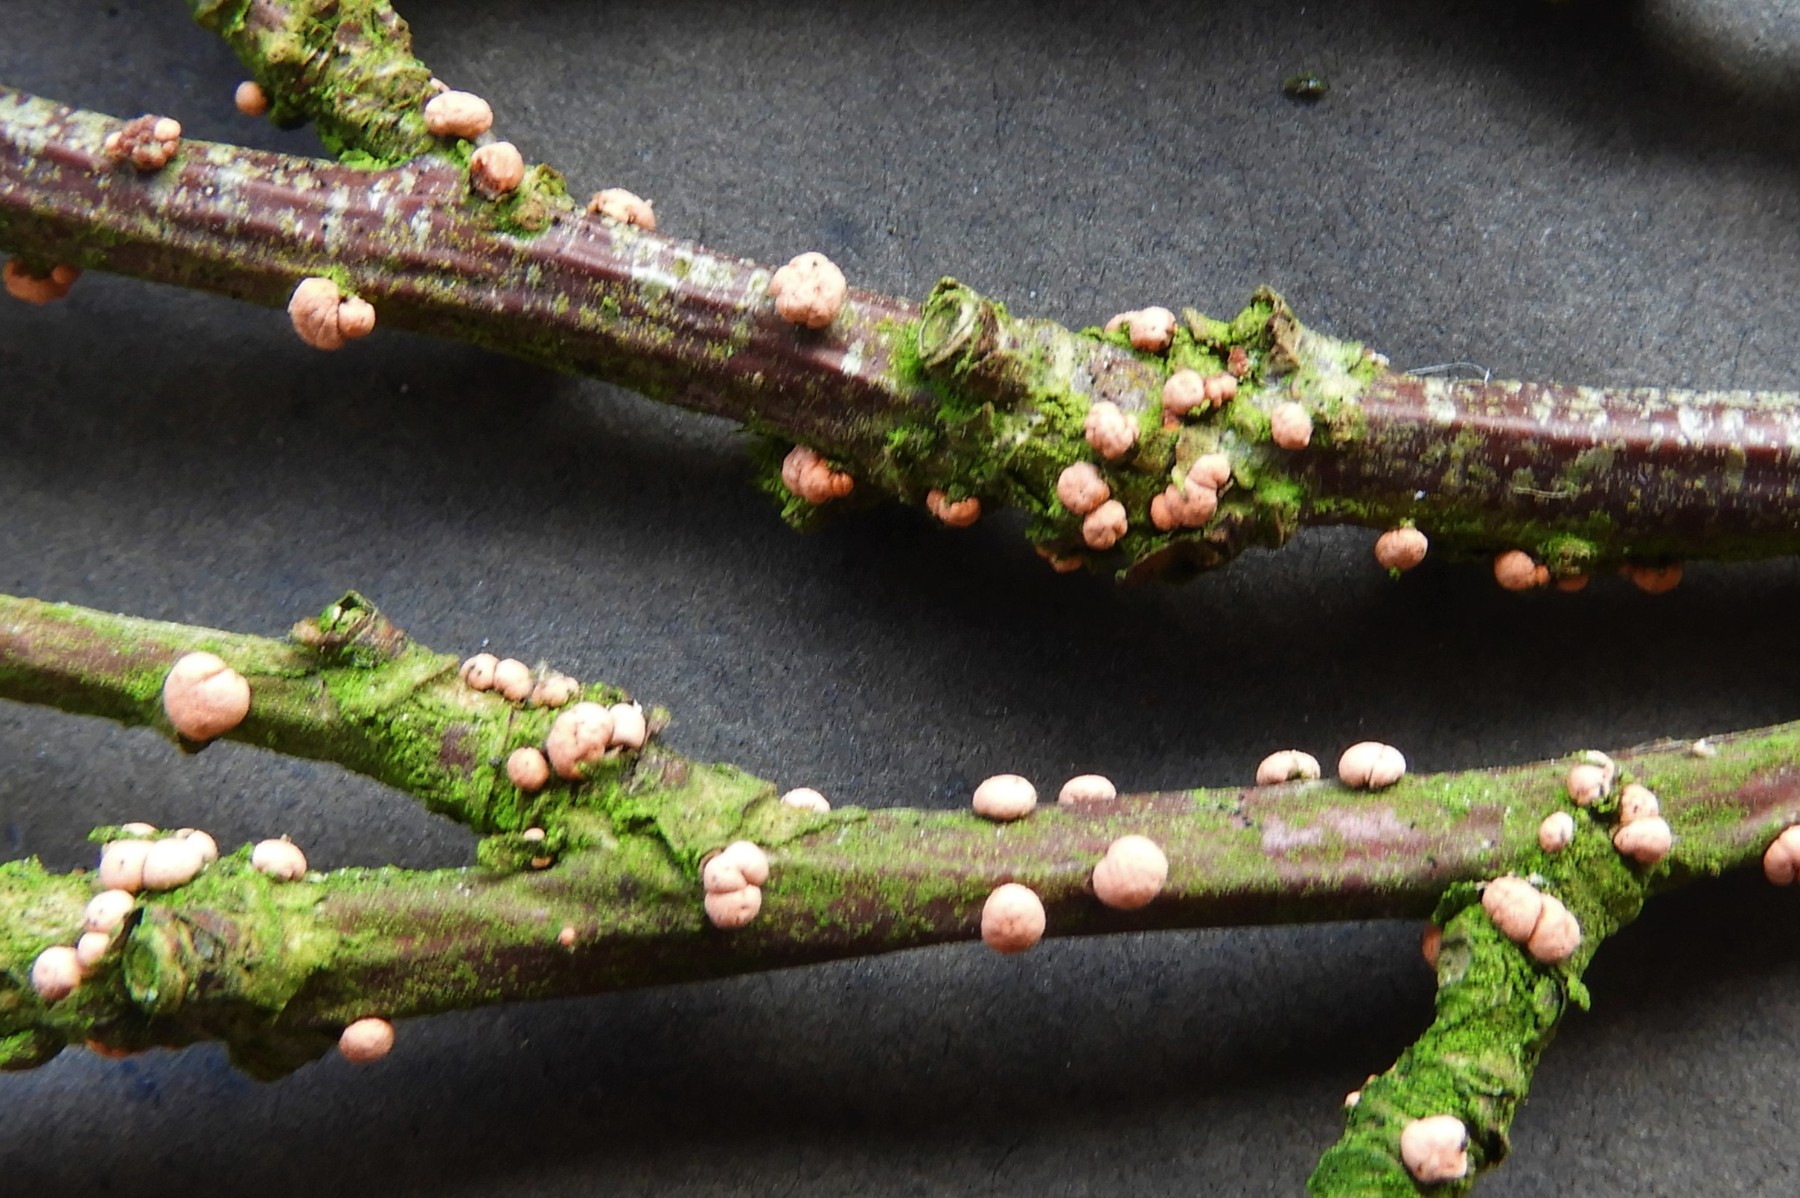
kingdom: Fungi
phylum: Ascomycota
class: Sordariomycetes
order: Hypocreales
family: Nectriaceae
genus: Nectria
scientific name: Nectria cinnabarina
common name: almindelig cinnobersvamp
